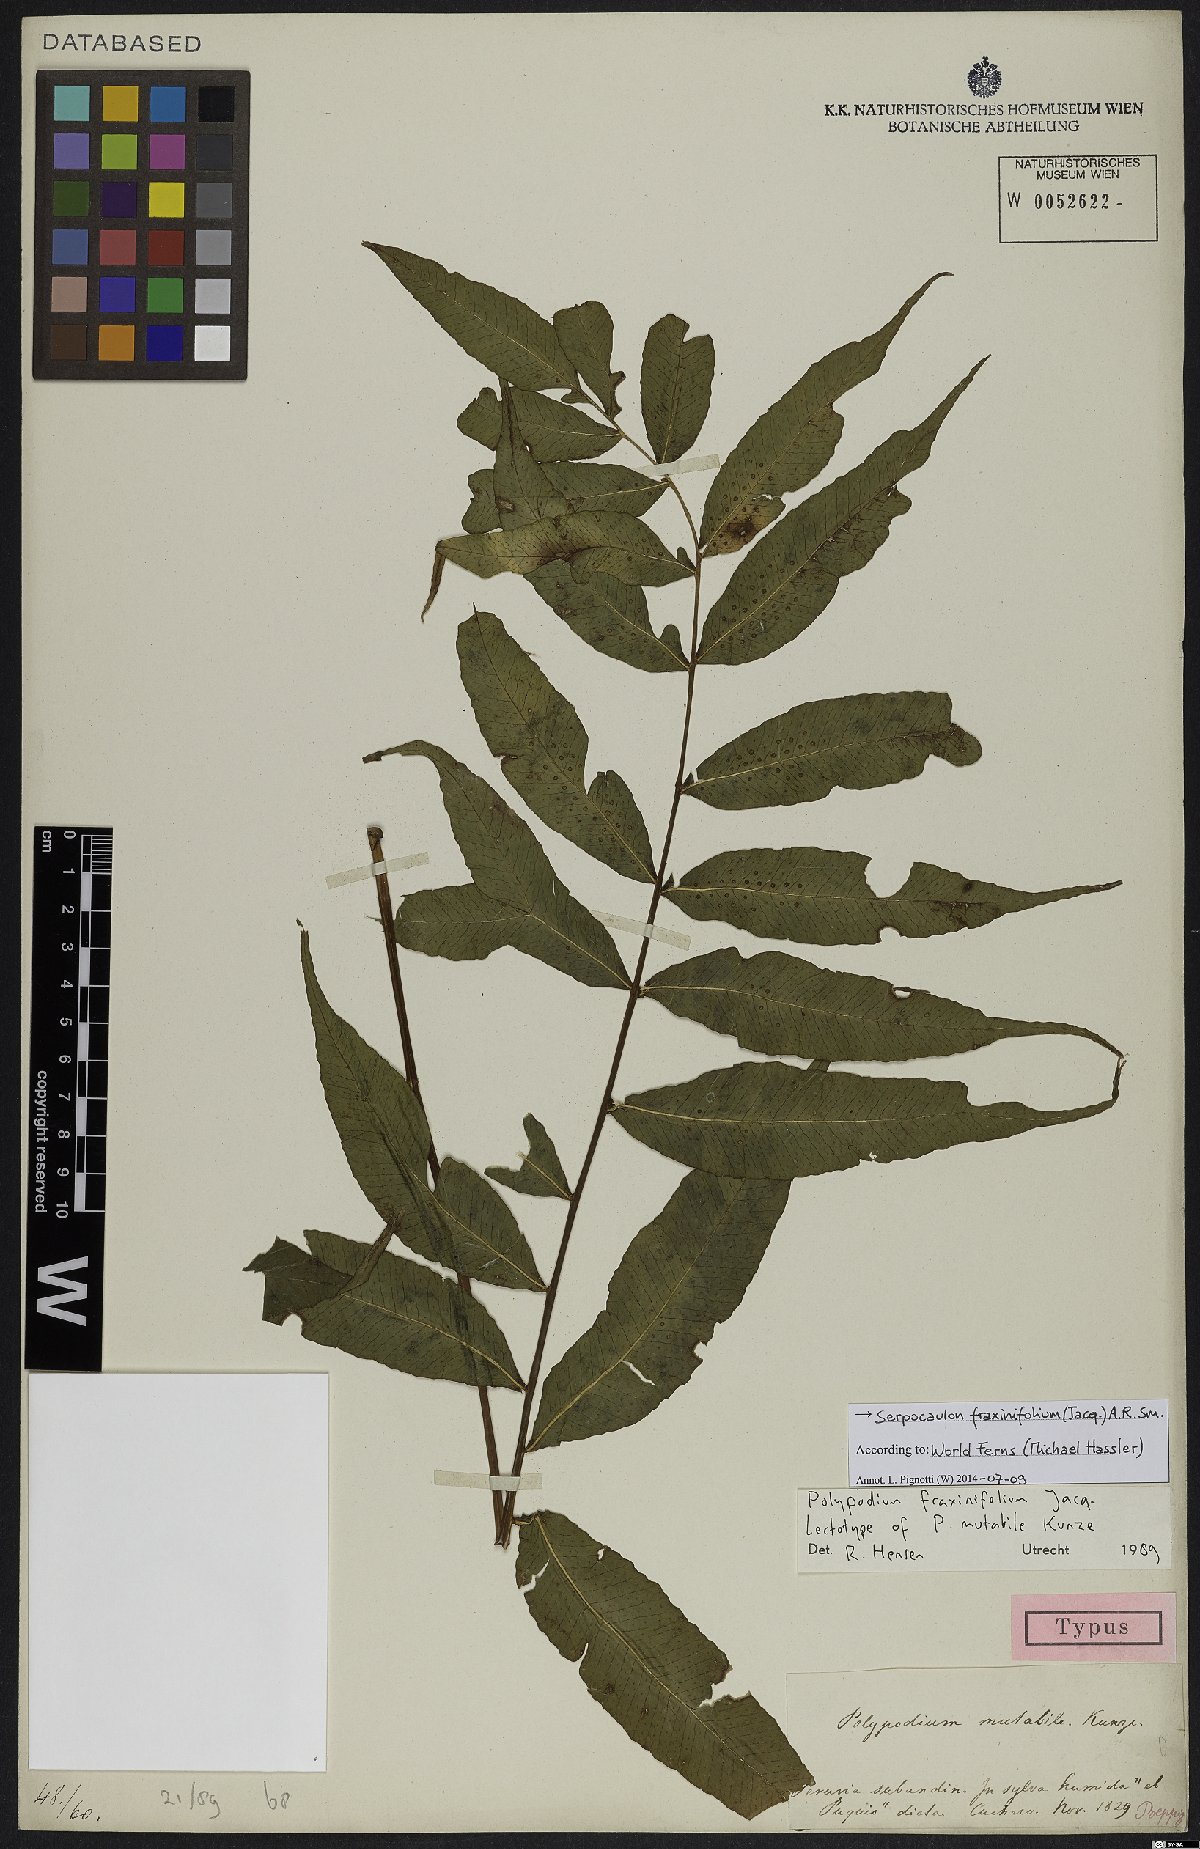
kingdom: Plantae
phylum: Tracheophyta
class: Polypodiopsida
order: Polypodiales
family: Polypodiaceae
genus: Serpocaulon
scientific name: Serpocaulon fraxinifolium
